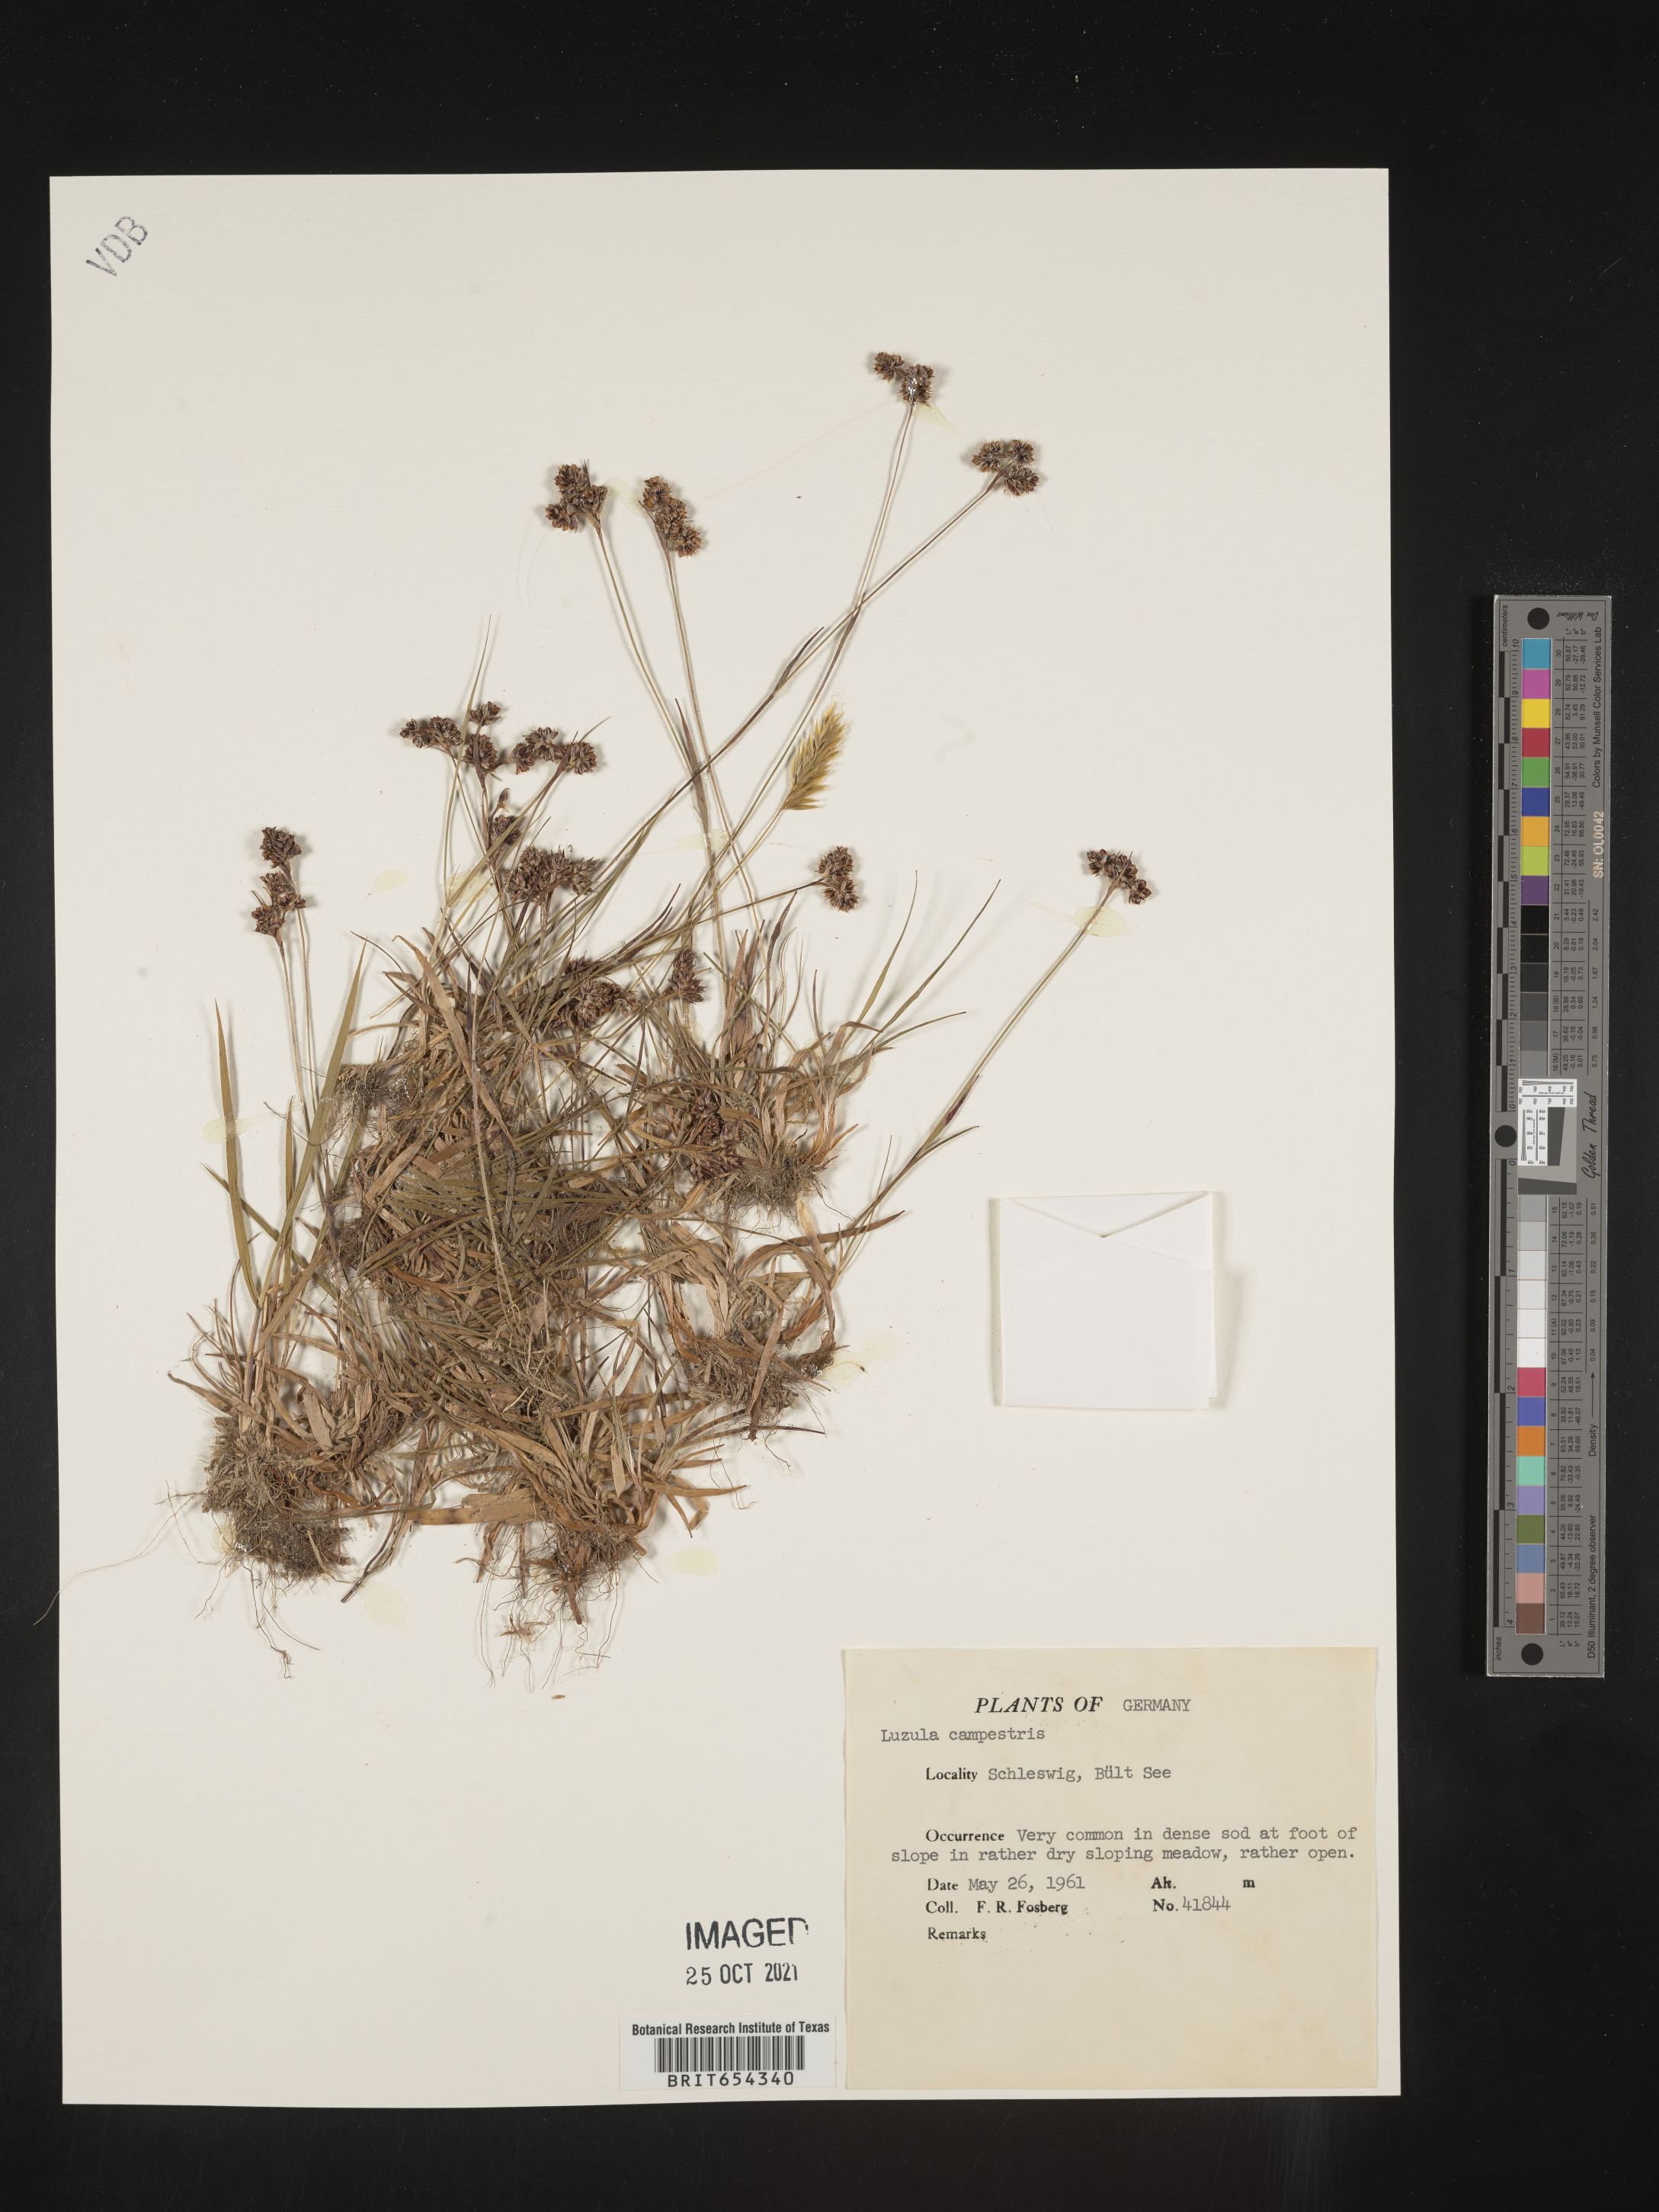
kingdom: Plantae
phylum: Tracheophyta
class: Liliopsida
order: Poales
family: Juncaceae
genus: Luzula
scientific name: Luzula
